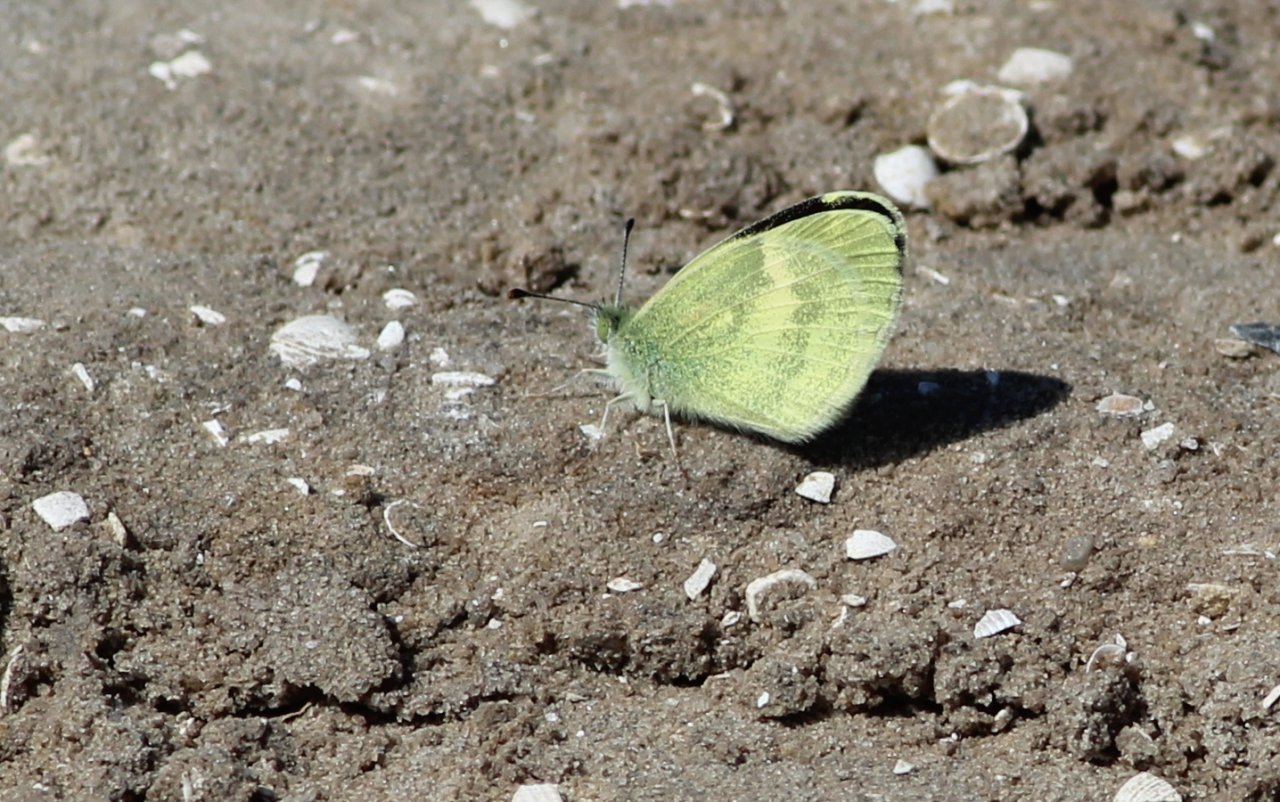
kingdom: Animalia
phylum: Arthropoda
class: Insecta
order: Lepidoptera
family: Pieridae
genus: Eurema
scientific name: Eurema daira
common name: Barred Yellow
